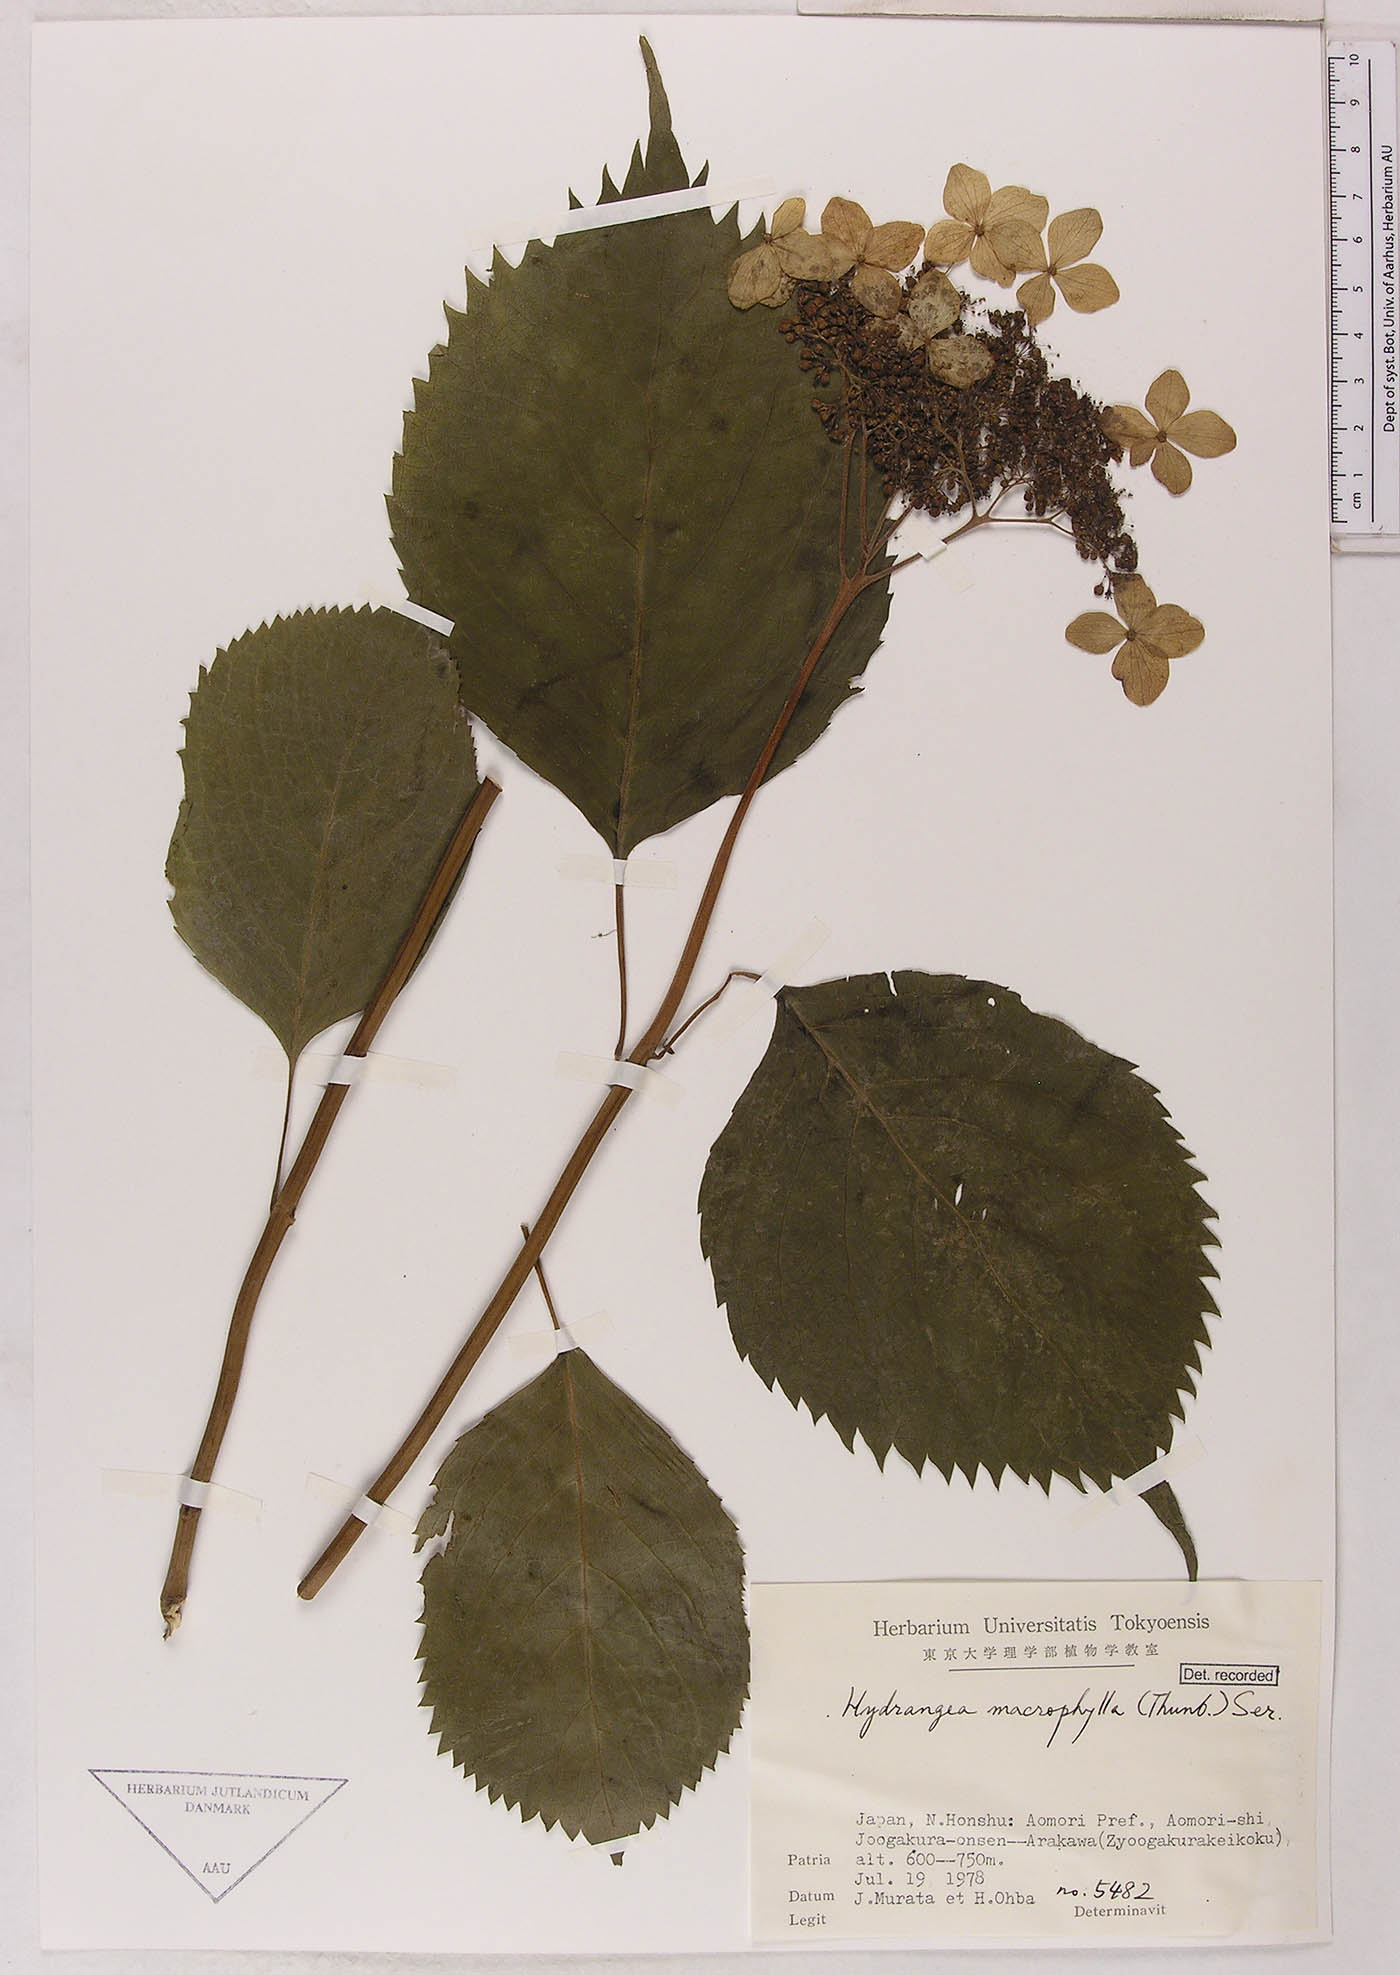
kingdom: Plantae
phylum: Tracheophyta
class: Magnoliopsida
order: Cornales
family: Hydrangeaceae
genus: Hydrangea
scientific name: Hydrangea macrophylla
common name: Hydrangea
